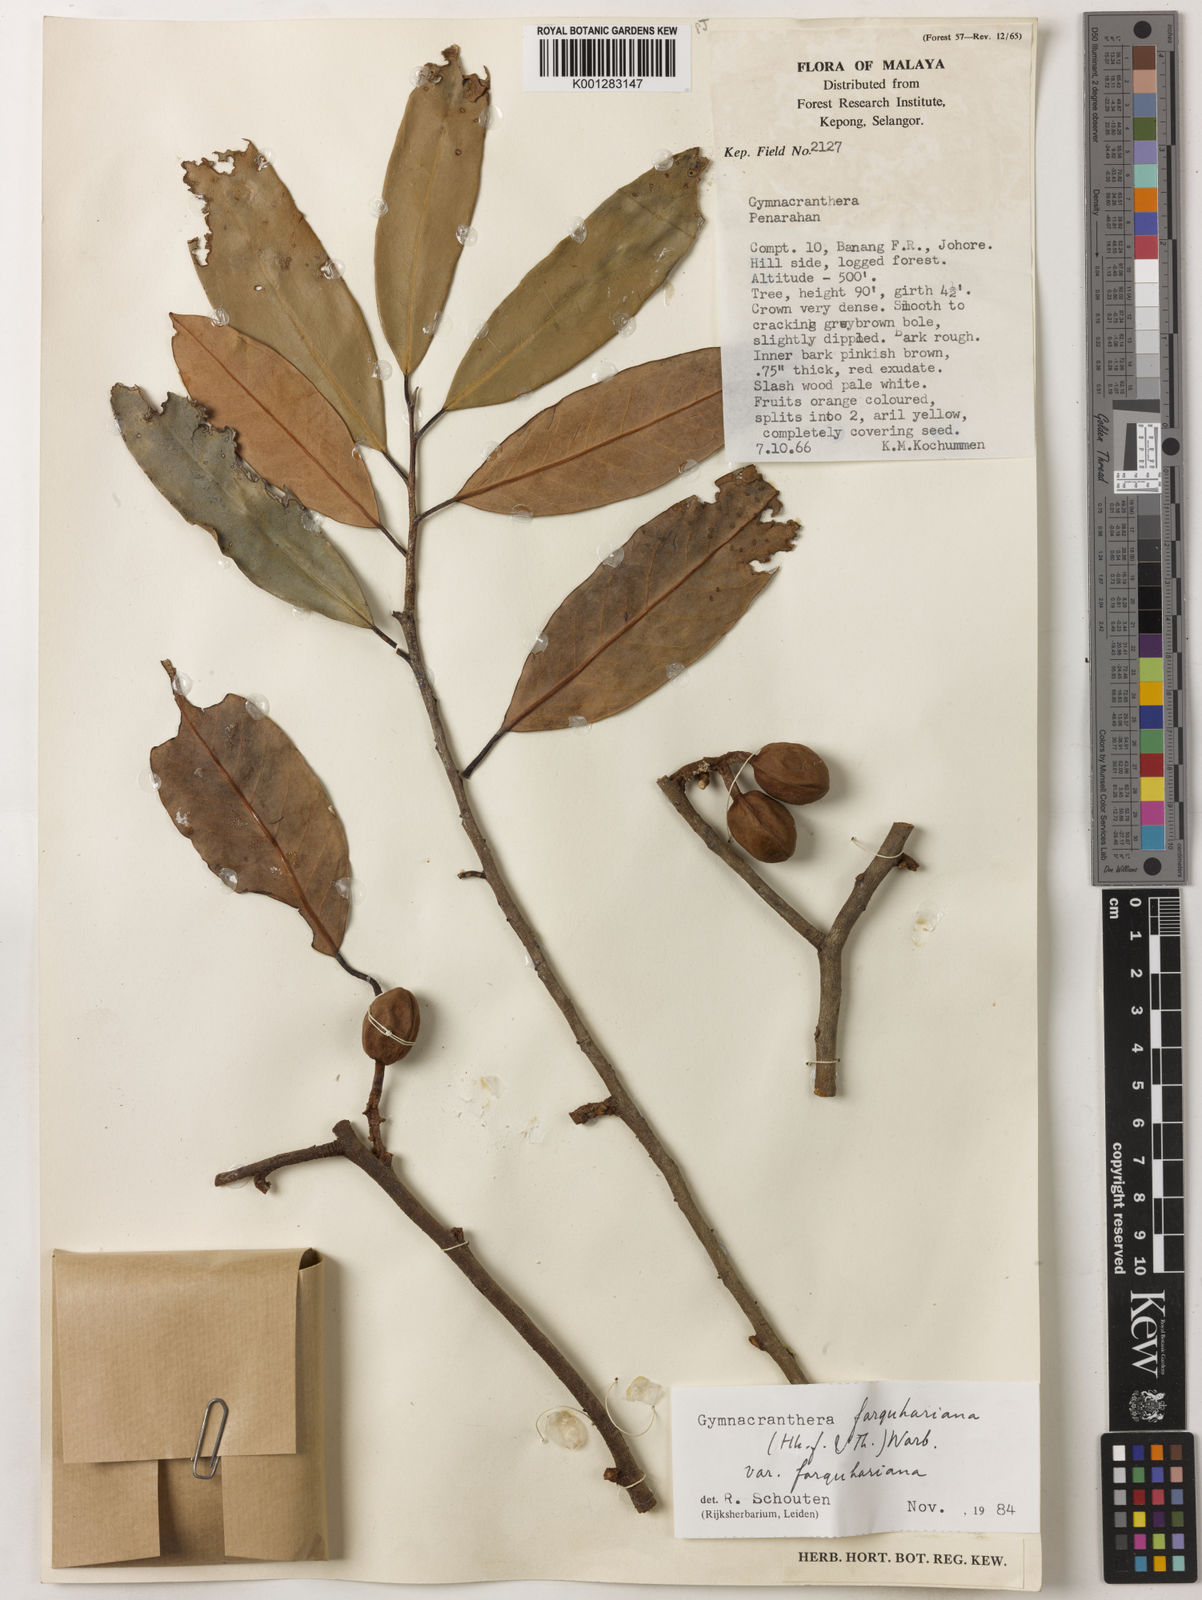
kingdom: Plantae
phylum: Tracheophyta
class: Magnoliopsida
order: Magnoliales
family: Myristicaceae
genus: Gymnacranthera
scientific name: Gymnacranthera farquhariana
